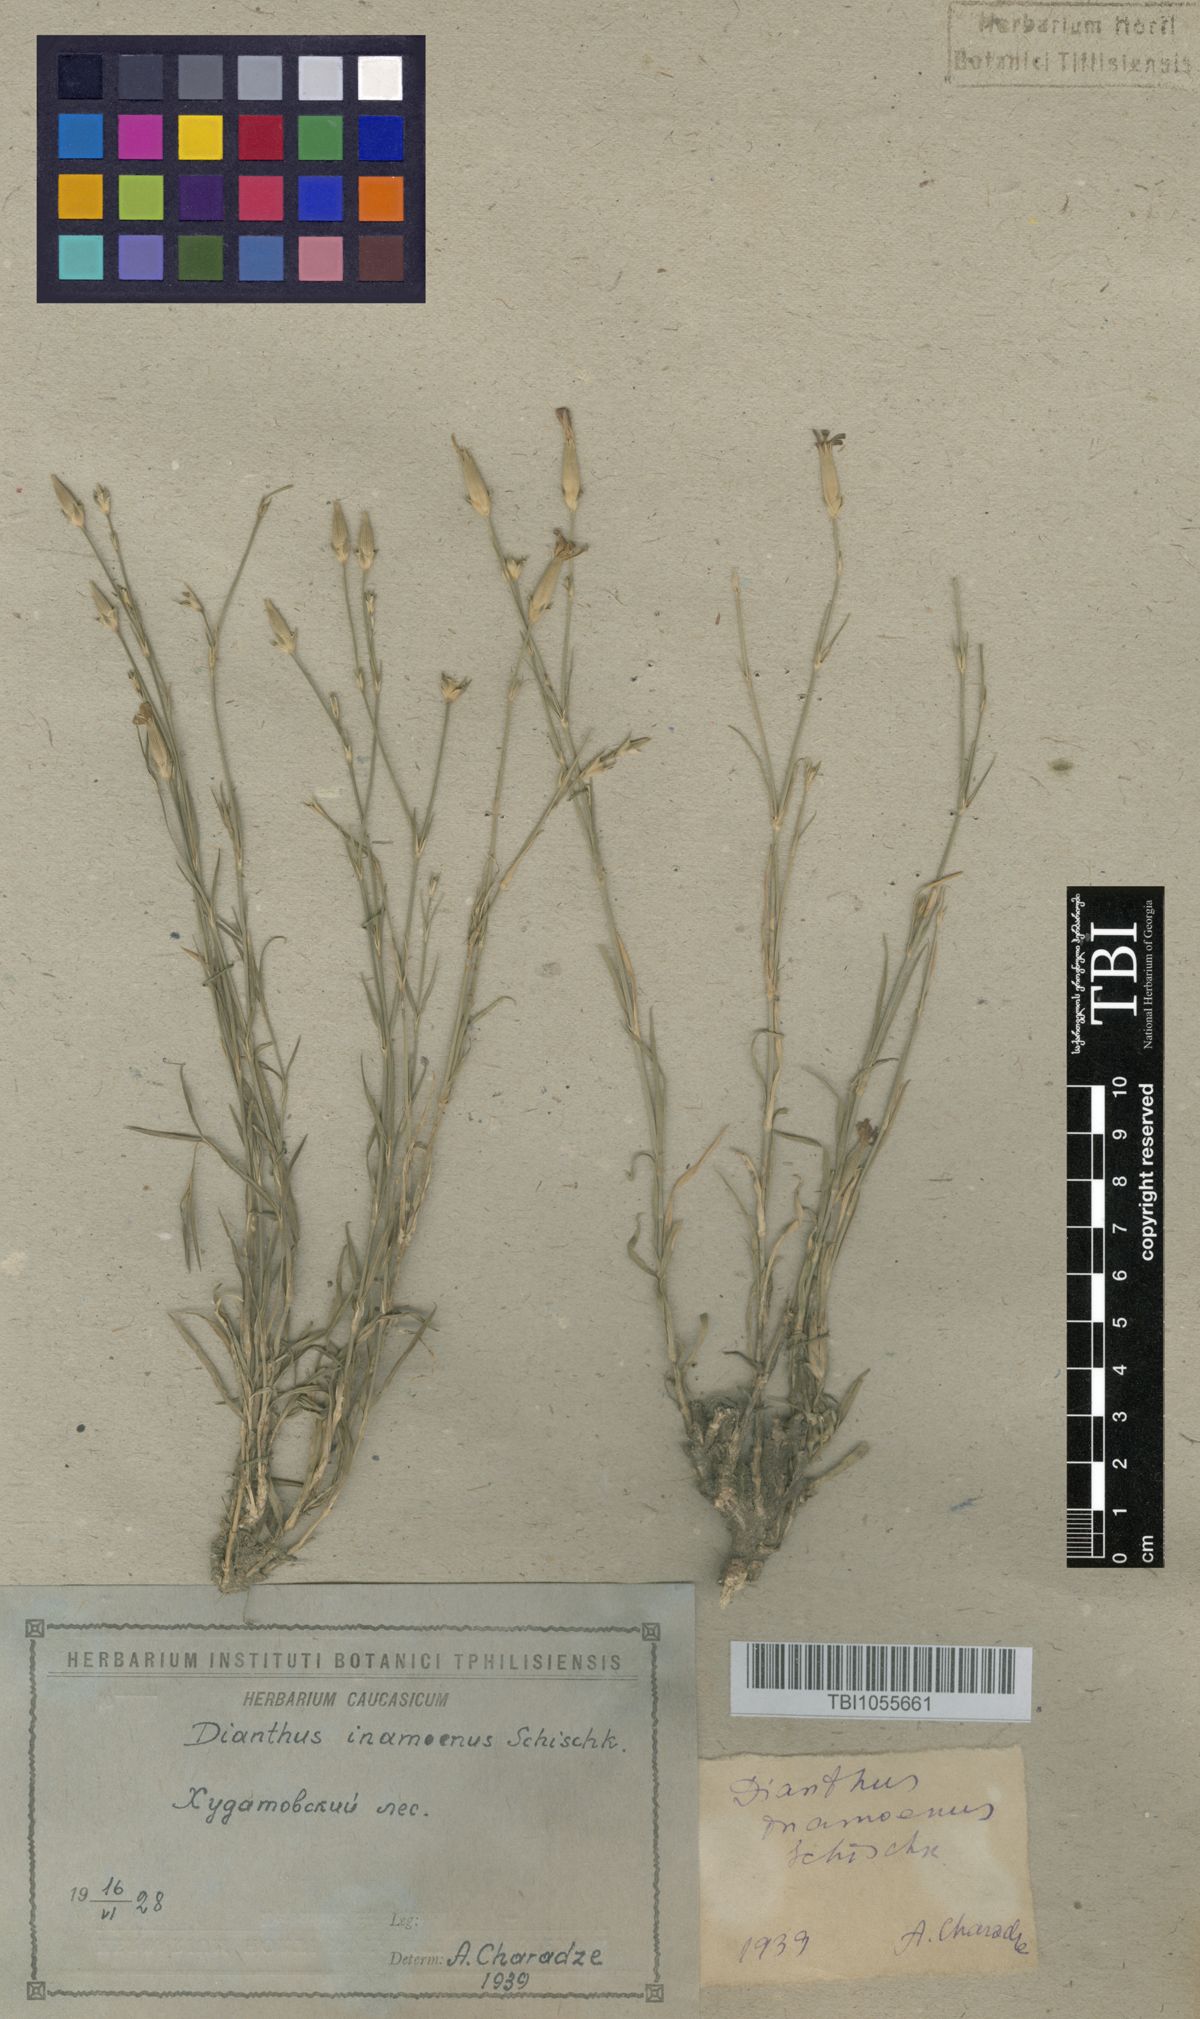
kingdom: Plantae
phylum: Tracheophyta
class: Magnoliopsida
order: Caryophyllales
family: Caryophyllaceae
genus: Dianthus
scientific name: Dianthus inamoenus
